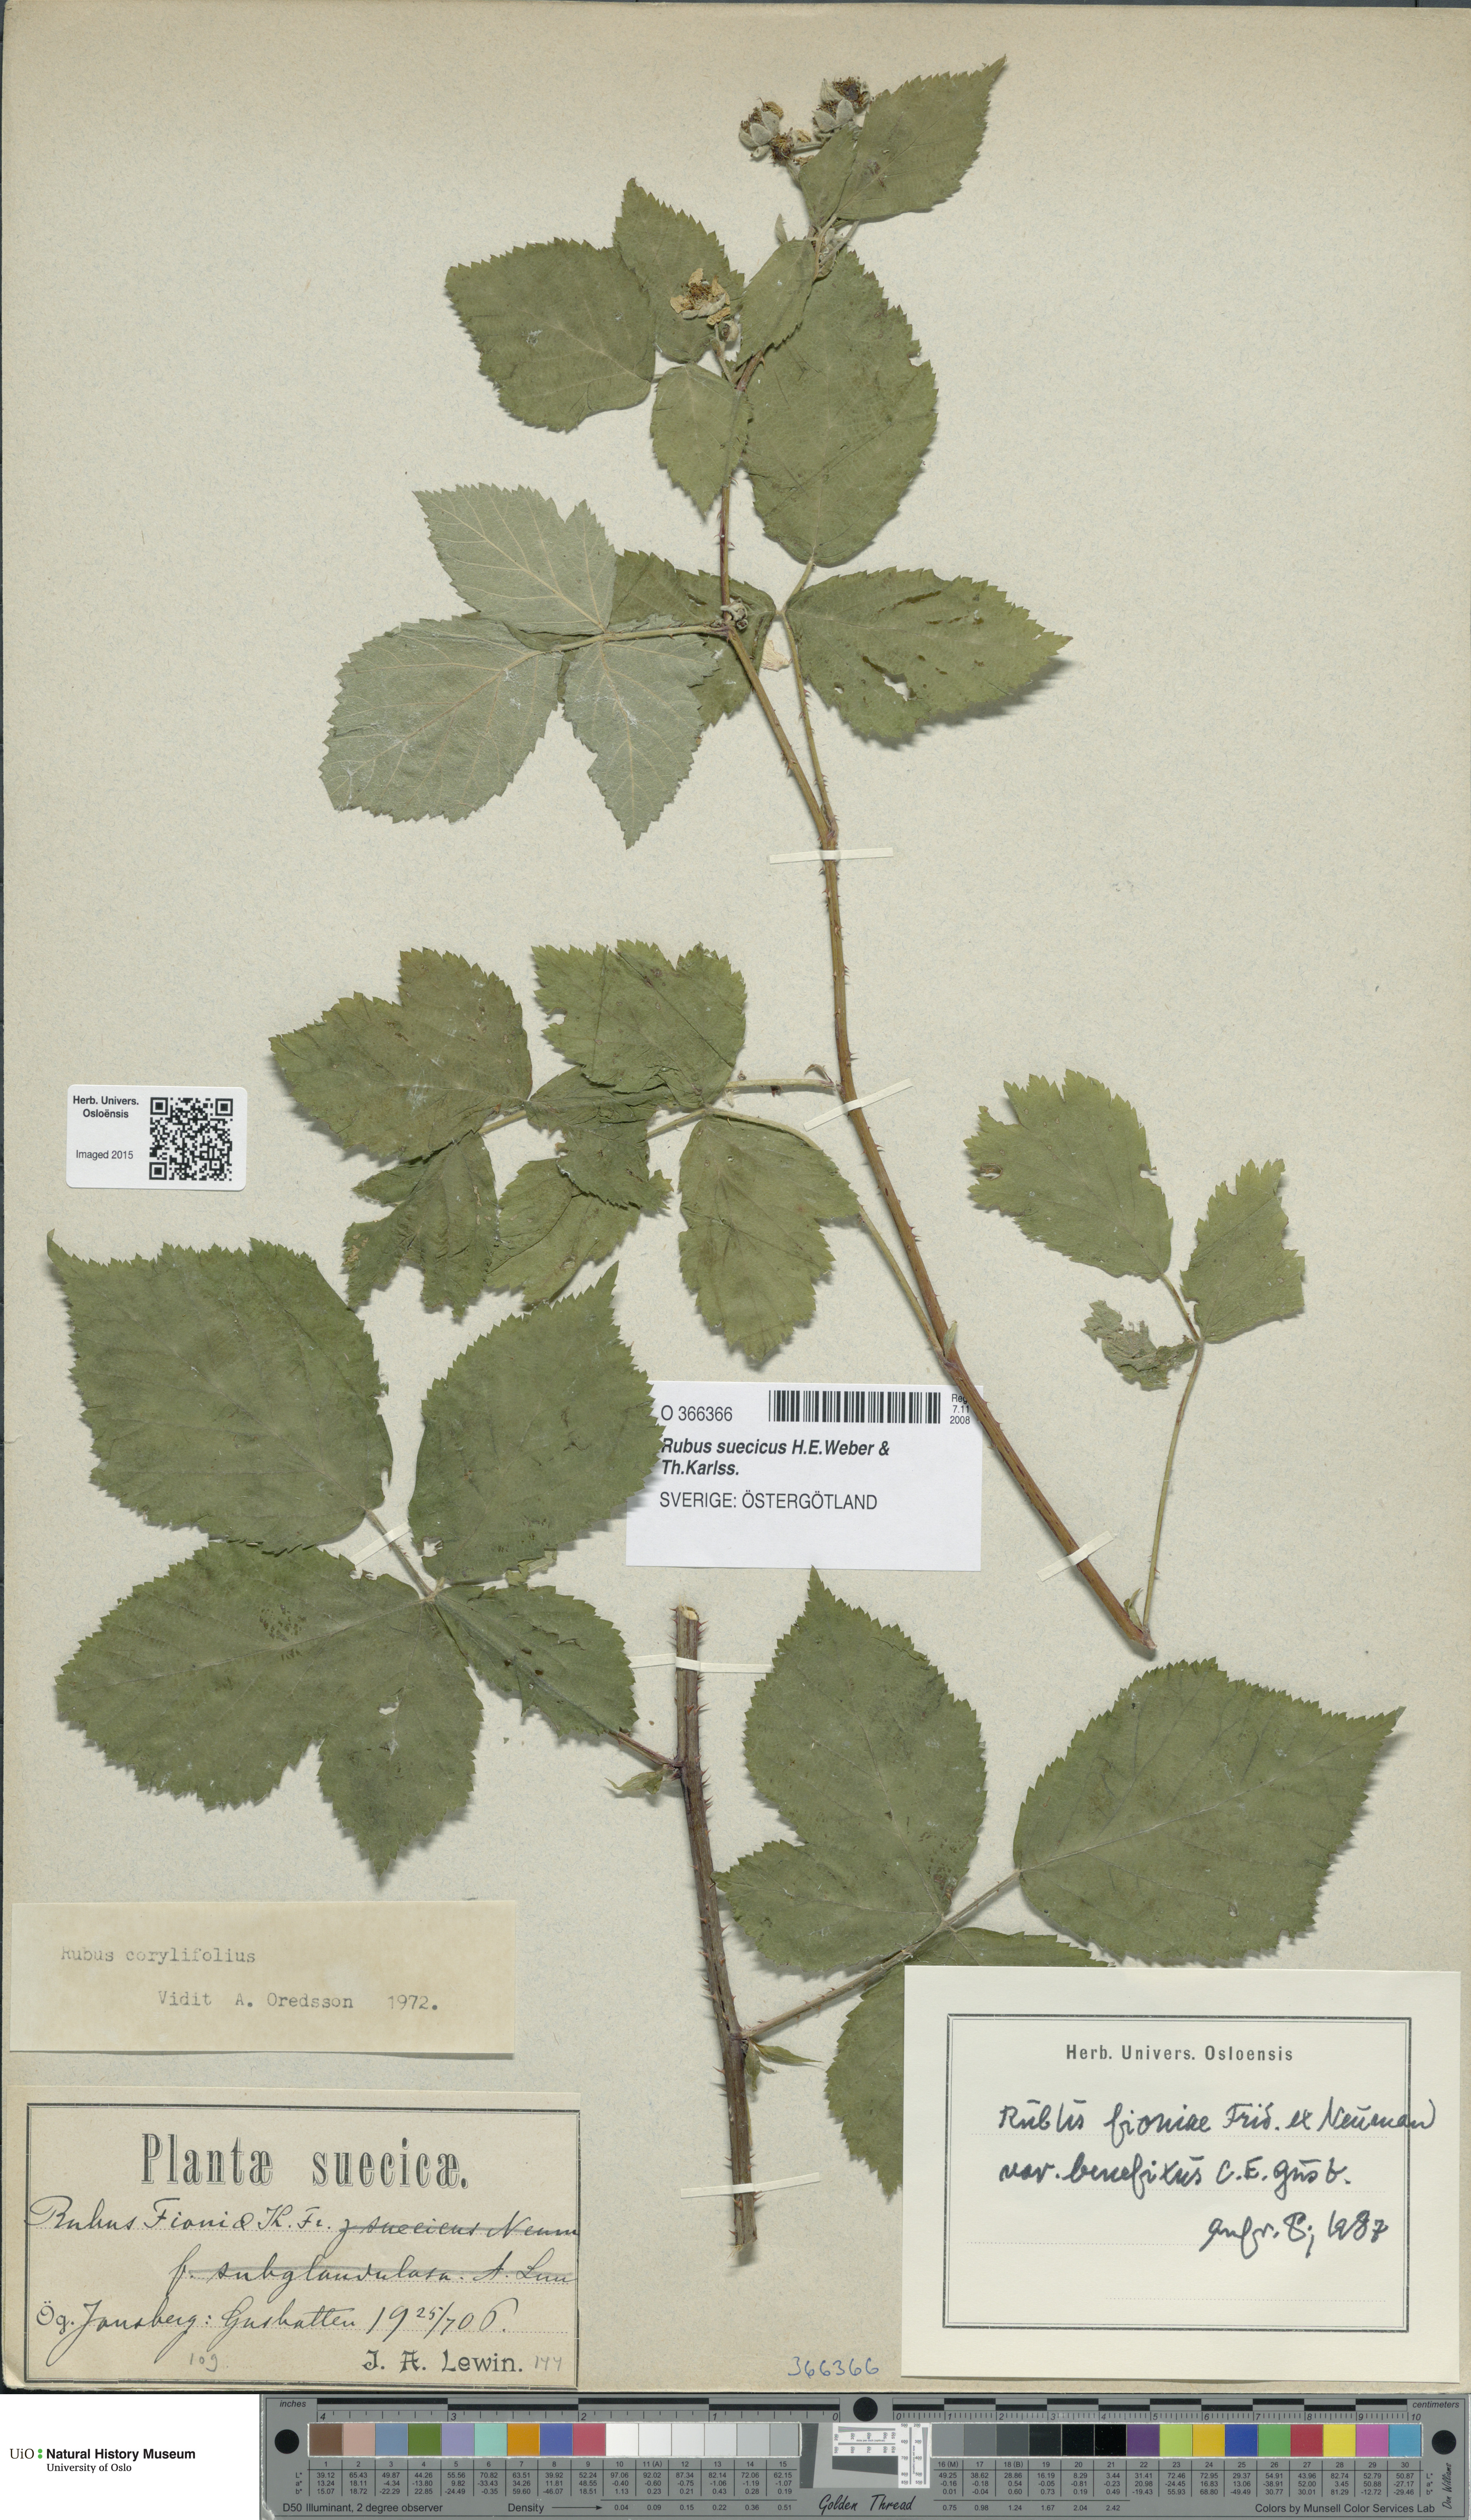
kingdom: Plantae
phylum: Tracheophyta
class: Magnoliopsida
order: Rosales
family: Rosaceae
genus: Rubus
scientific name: Rubus suecicus
